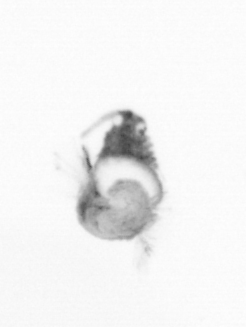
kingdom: Animalia
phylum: Annelida
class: Polychaeta
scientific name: Polychaeta
